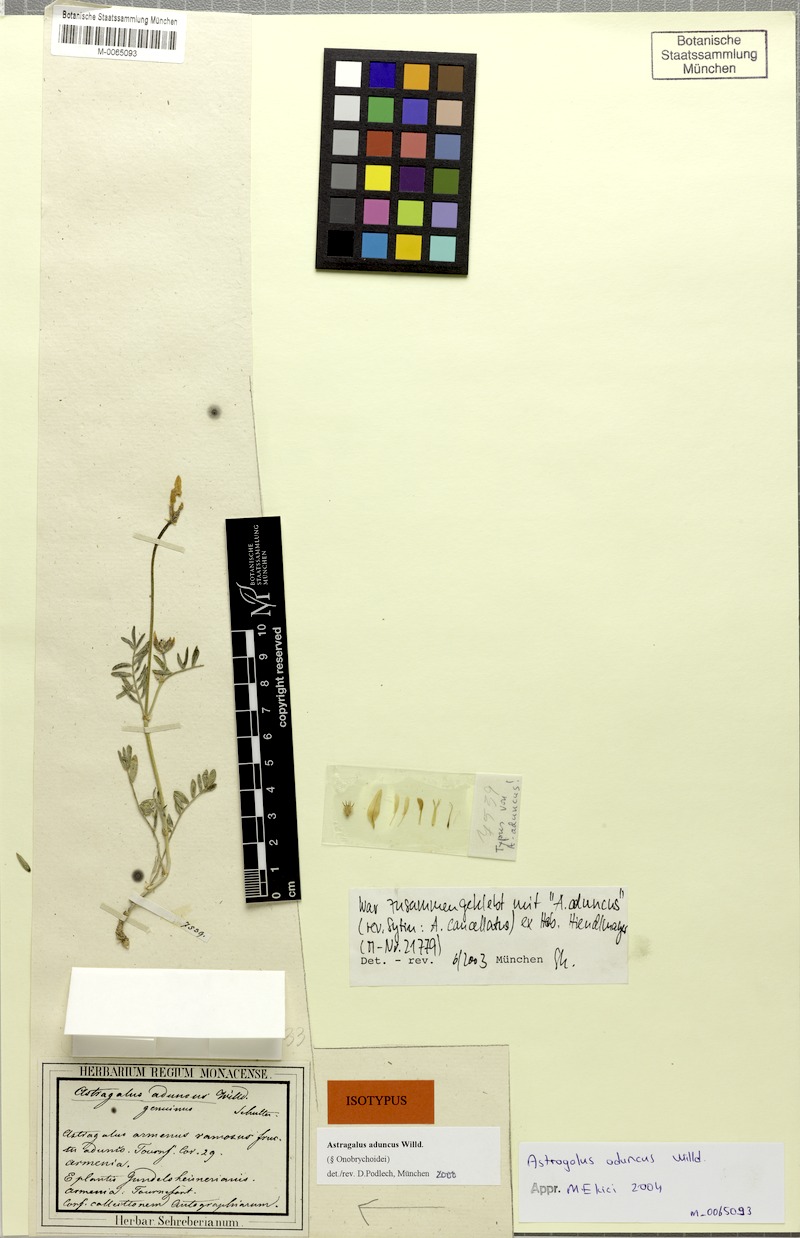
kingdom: Plantae
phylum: Tracheophyta
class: Magnoliopsida
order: Fabales
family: Fabaceae
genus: Astragalus
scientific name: Astragalus aduncus
